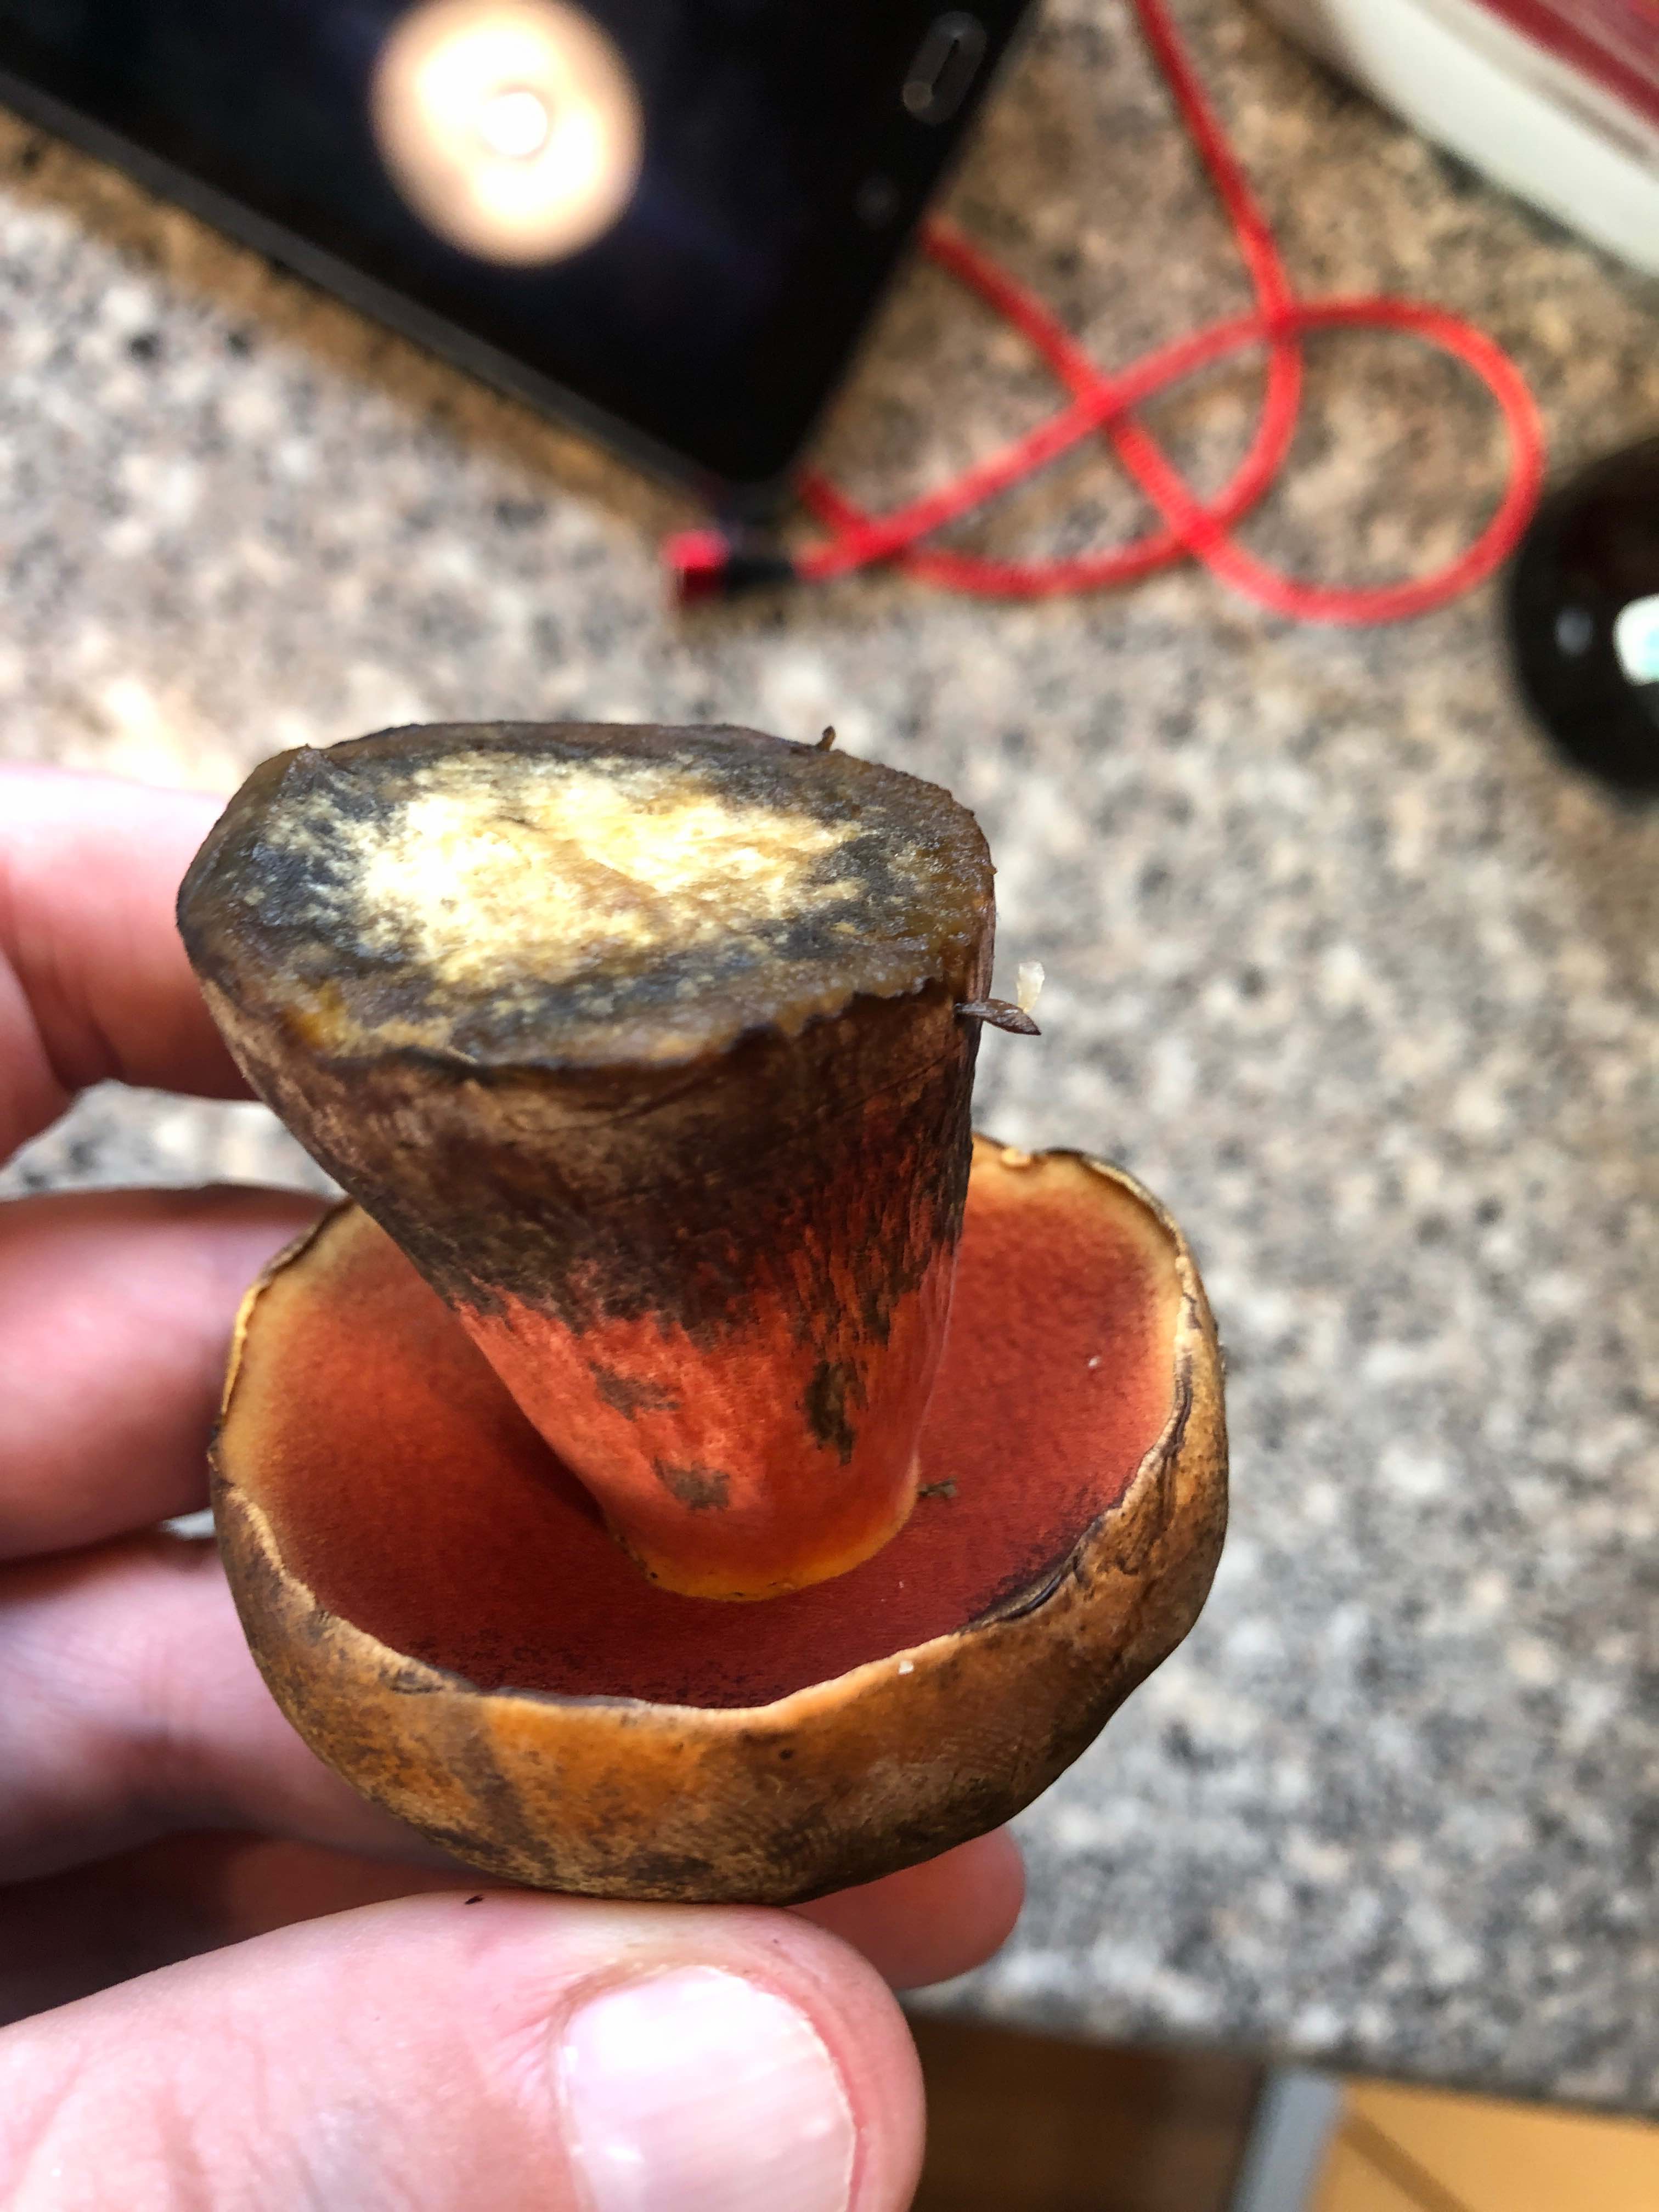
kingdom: Fungi
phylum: Basidiomycota
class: Agaricomycetes
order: Boletales
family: Boletaceae
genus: Neoboletus
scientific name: Neoboletus erythropus
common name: punktstokket indigorørhat
